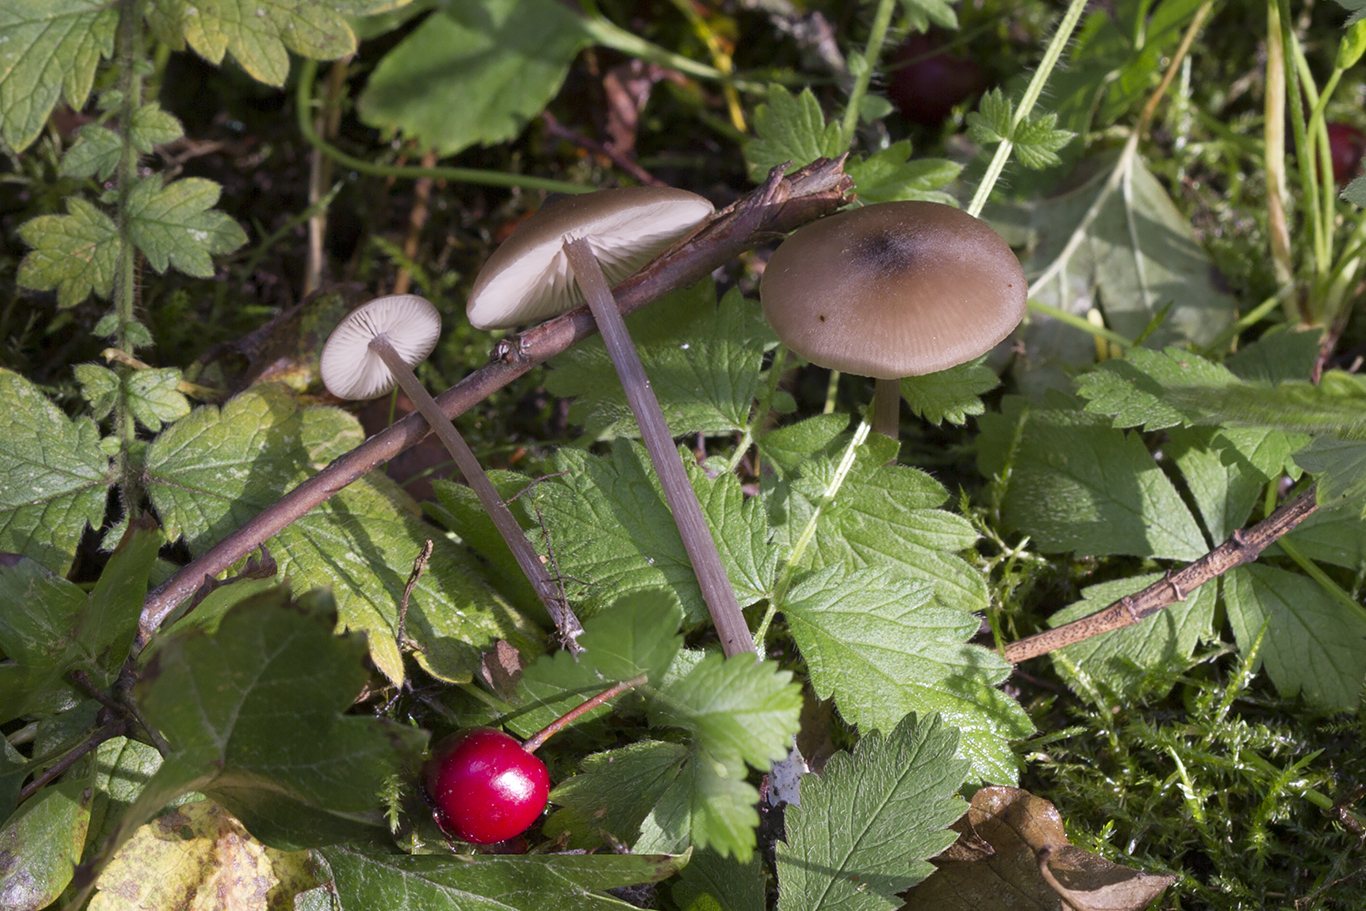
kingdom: Fungi
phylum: Basidiomycota
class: Agaricomycetes
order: Agaricales
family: Entolomataceae
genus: Entoloma
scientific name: Entoloma
